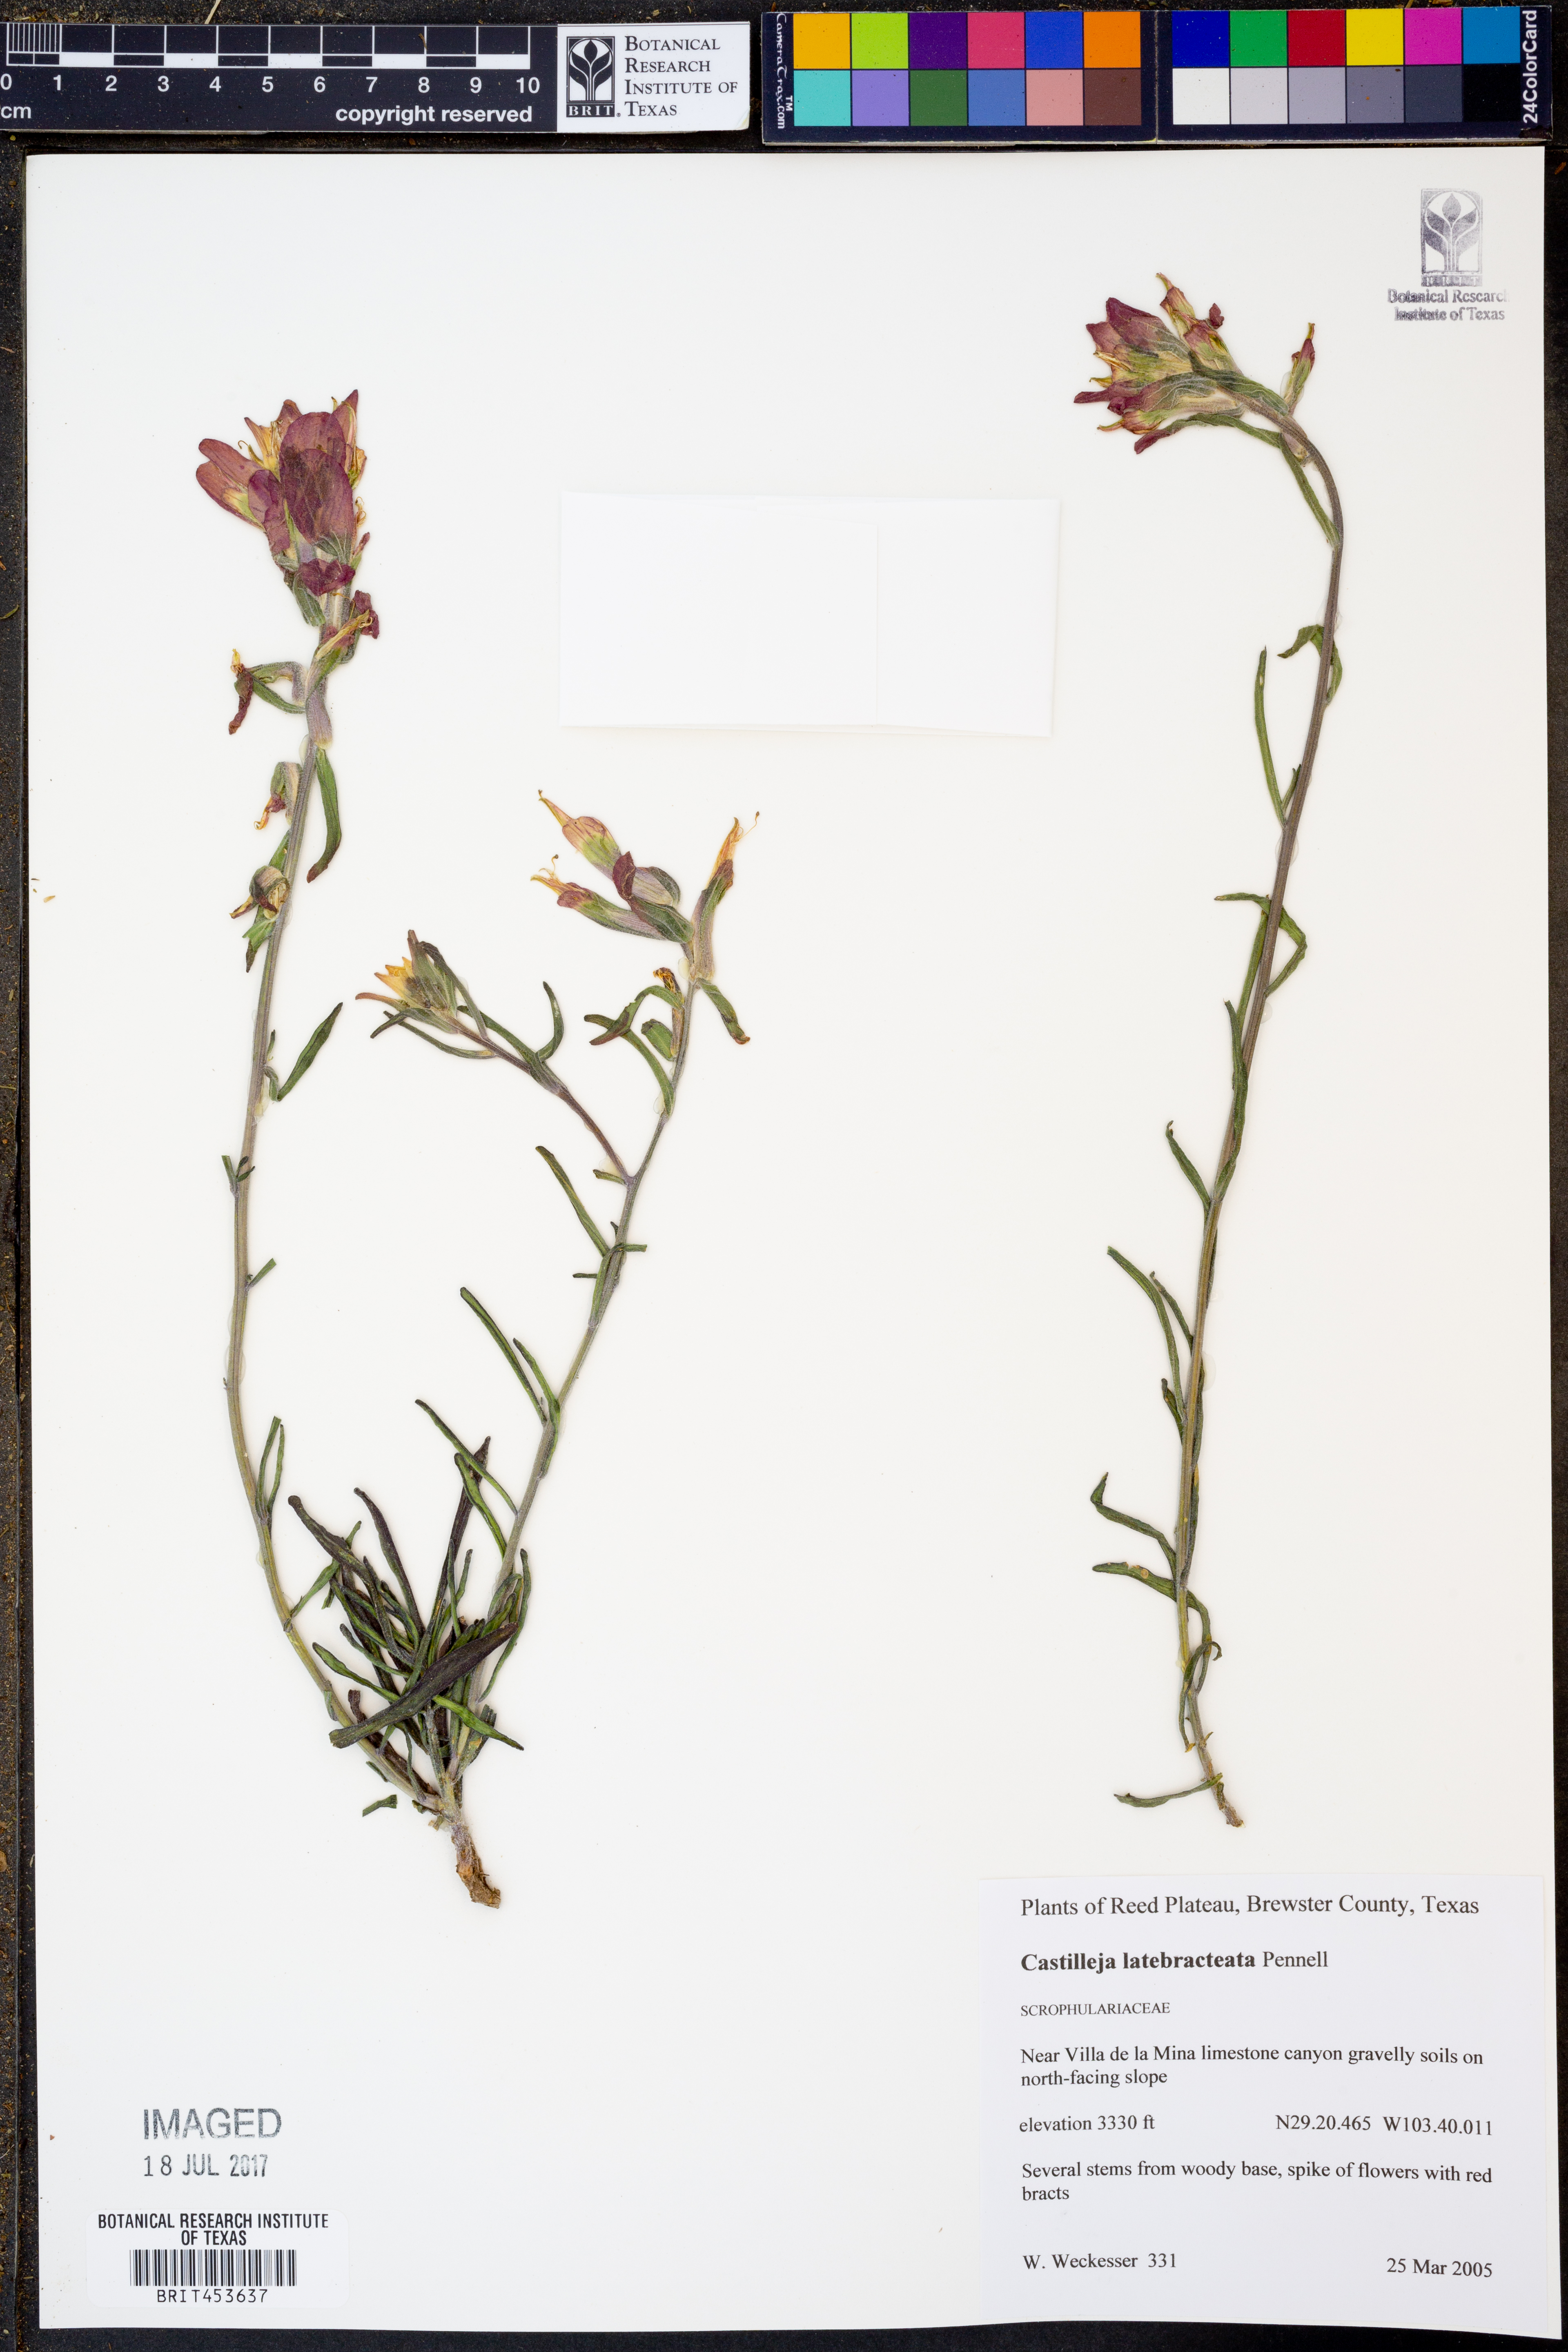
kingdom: Plantae
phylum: Tracheophyta
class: Magnoliopsida
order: Lamiales
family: Orobanchaceae
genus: Castilleja
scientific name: Castilleja rigida
